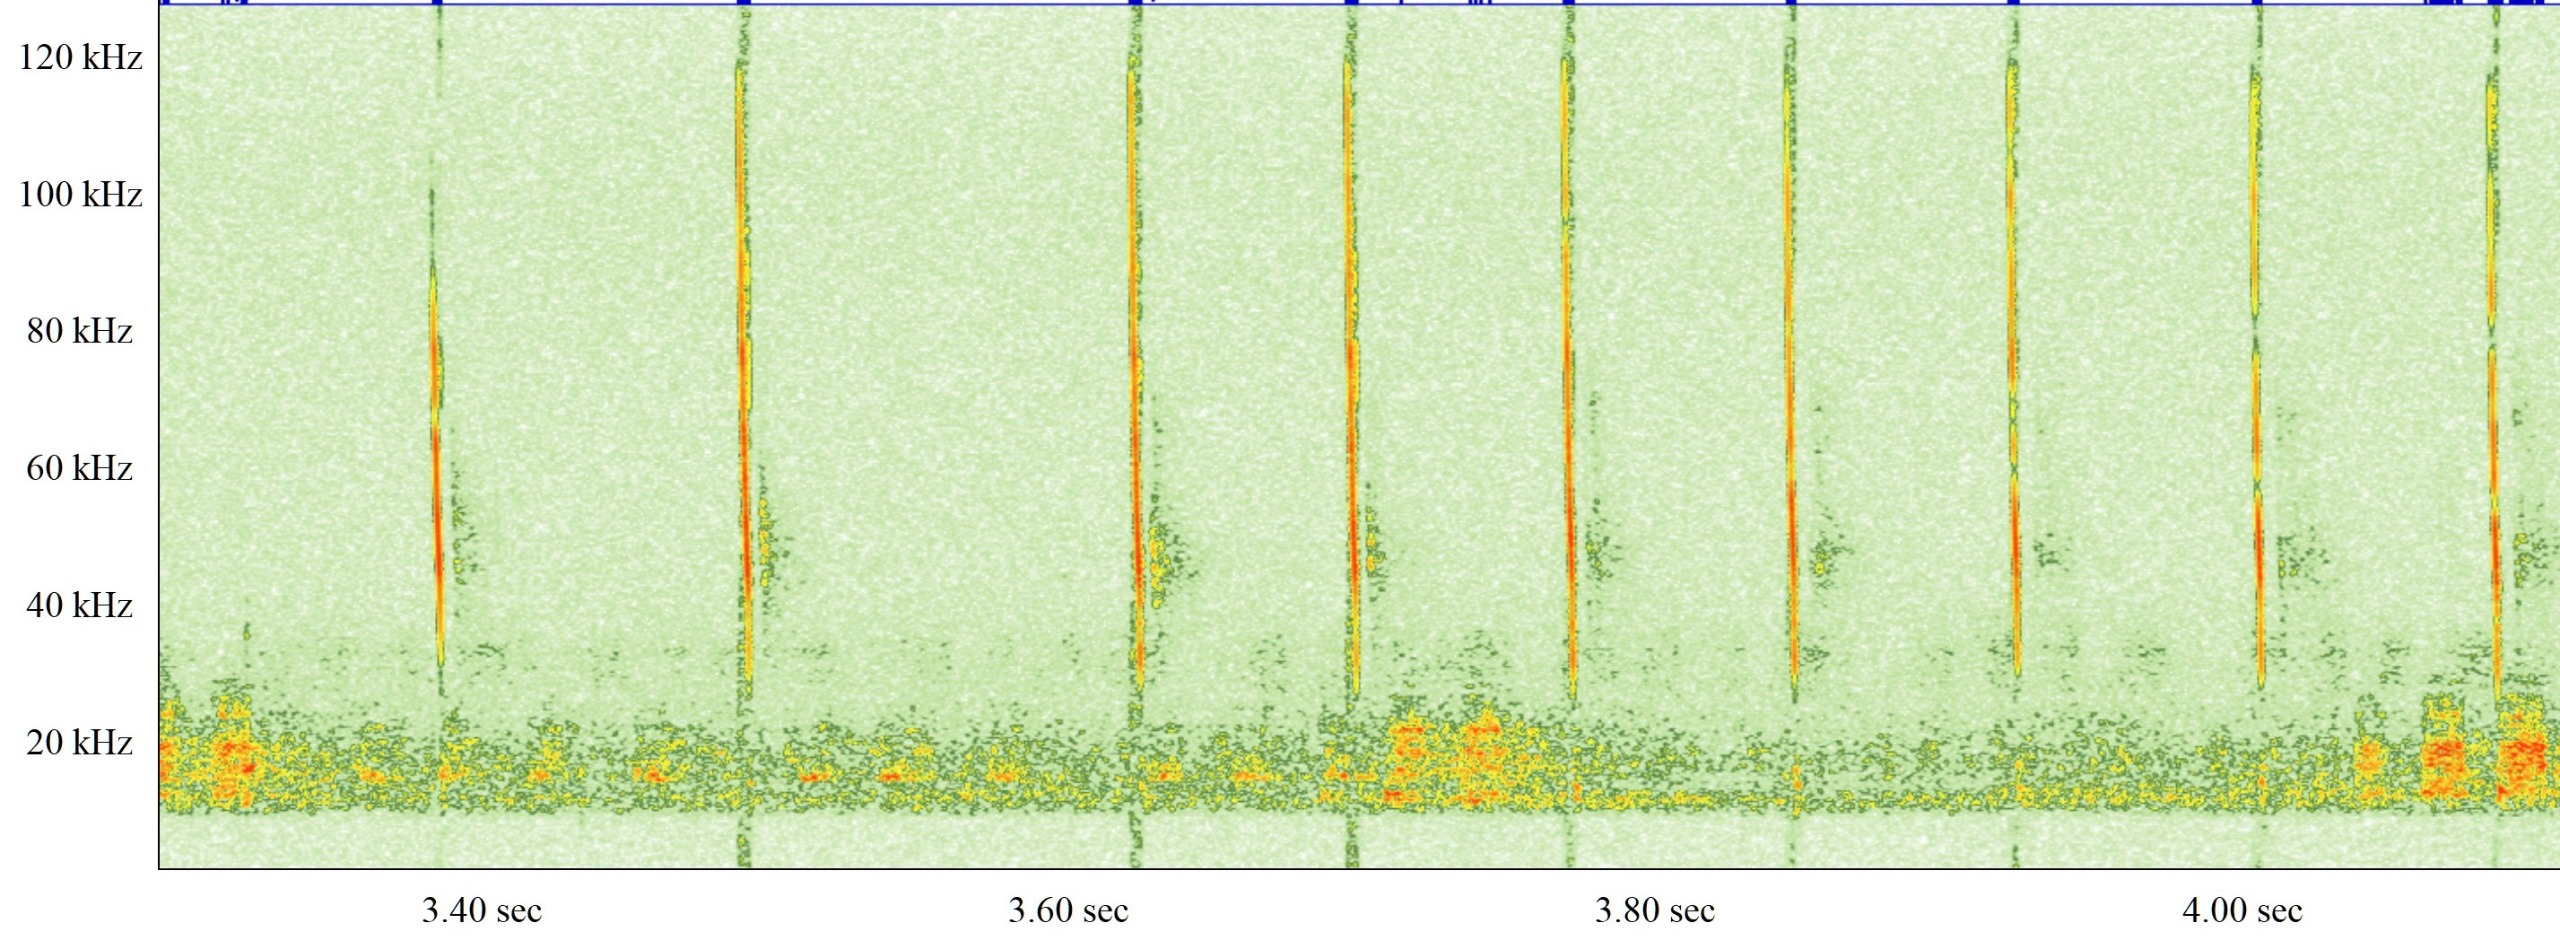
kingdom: Animalia
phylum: Chordata
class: Mammalia
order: Chiroptera
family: Vespertilionidae
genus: Myotis
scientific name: Myotis nattereri
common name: Frynseflagermus
